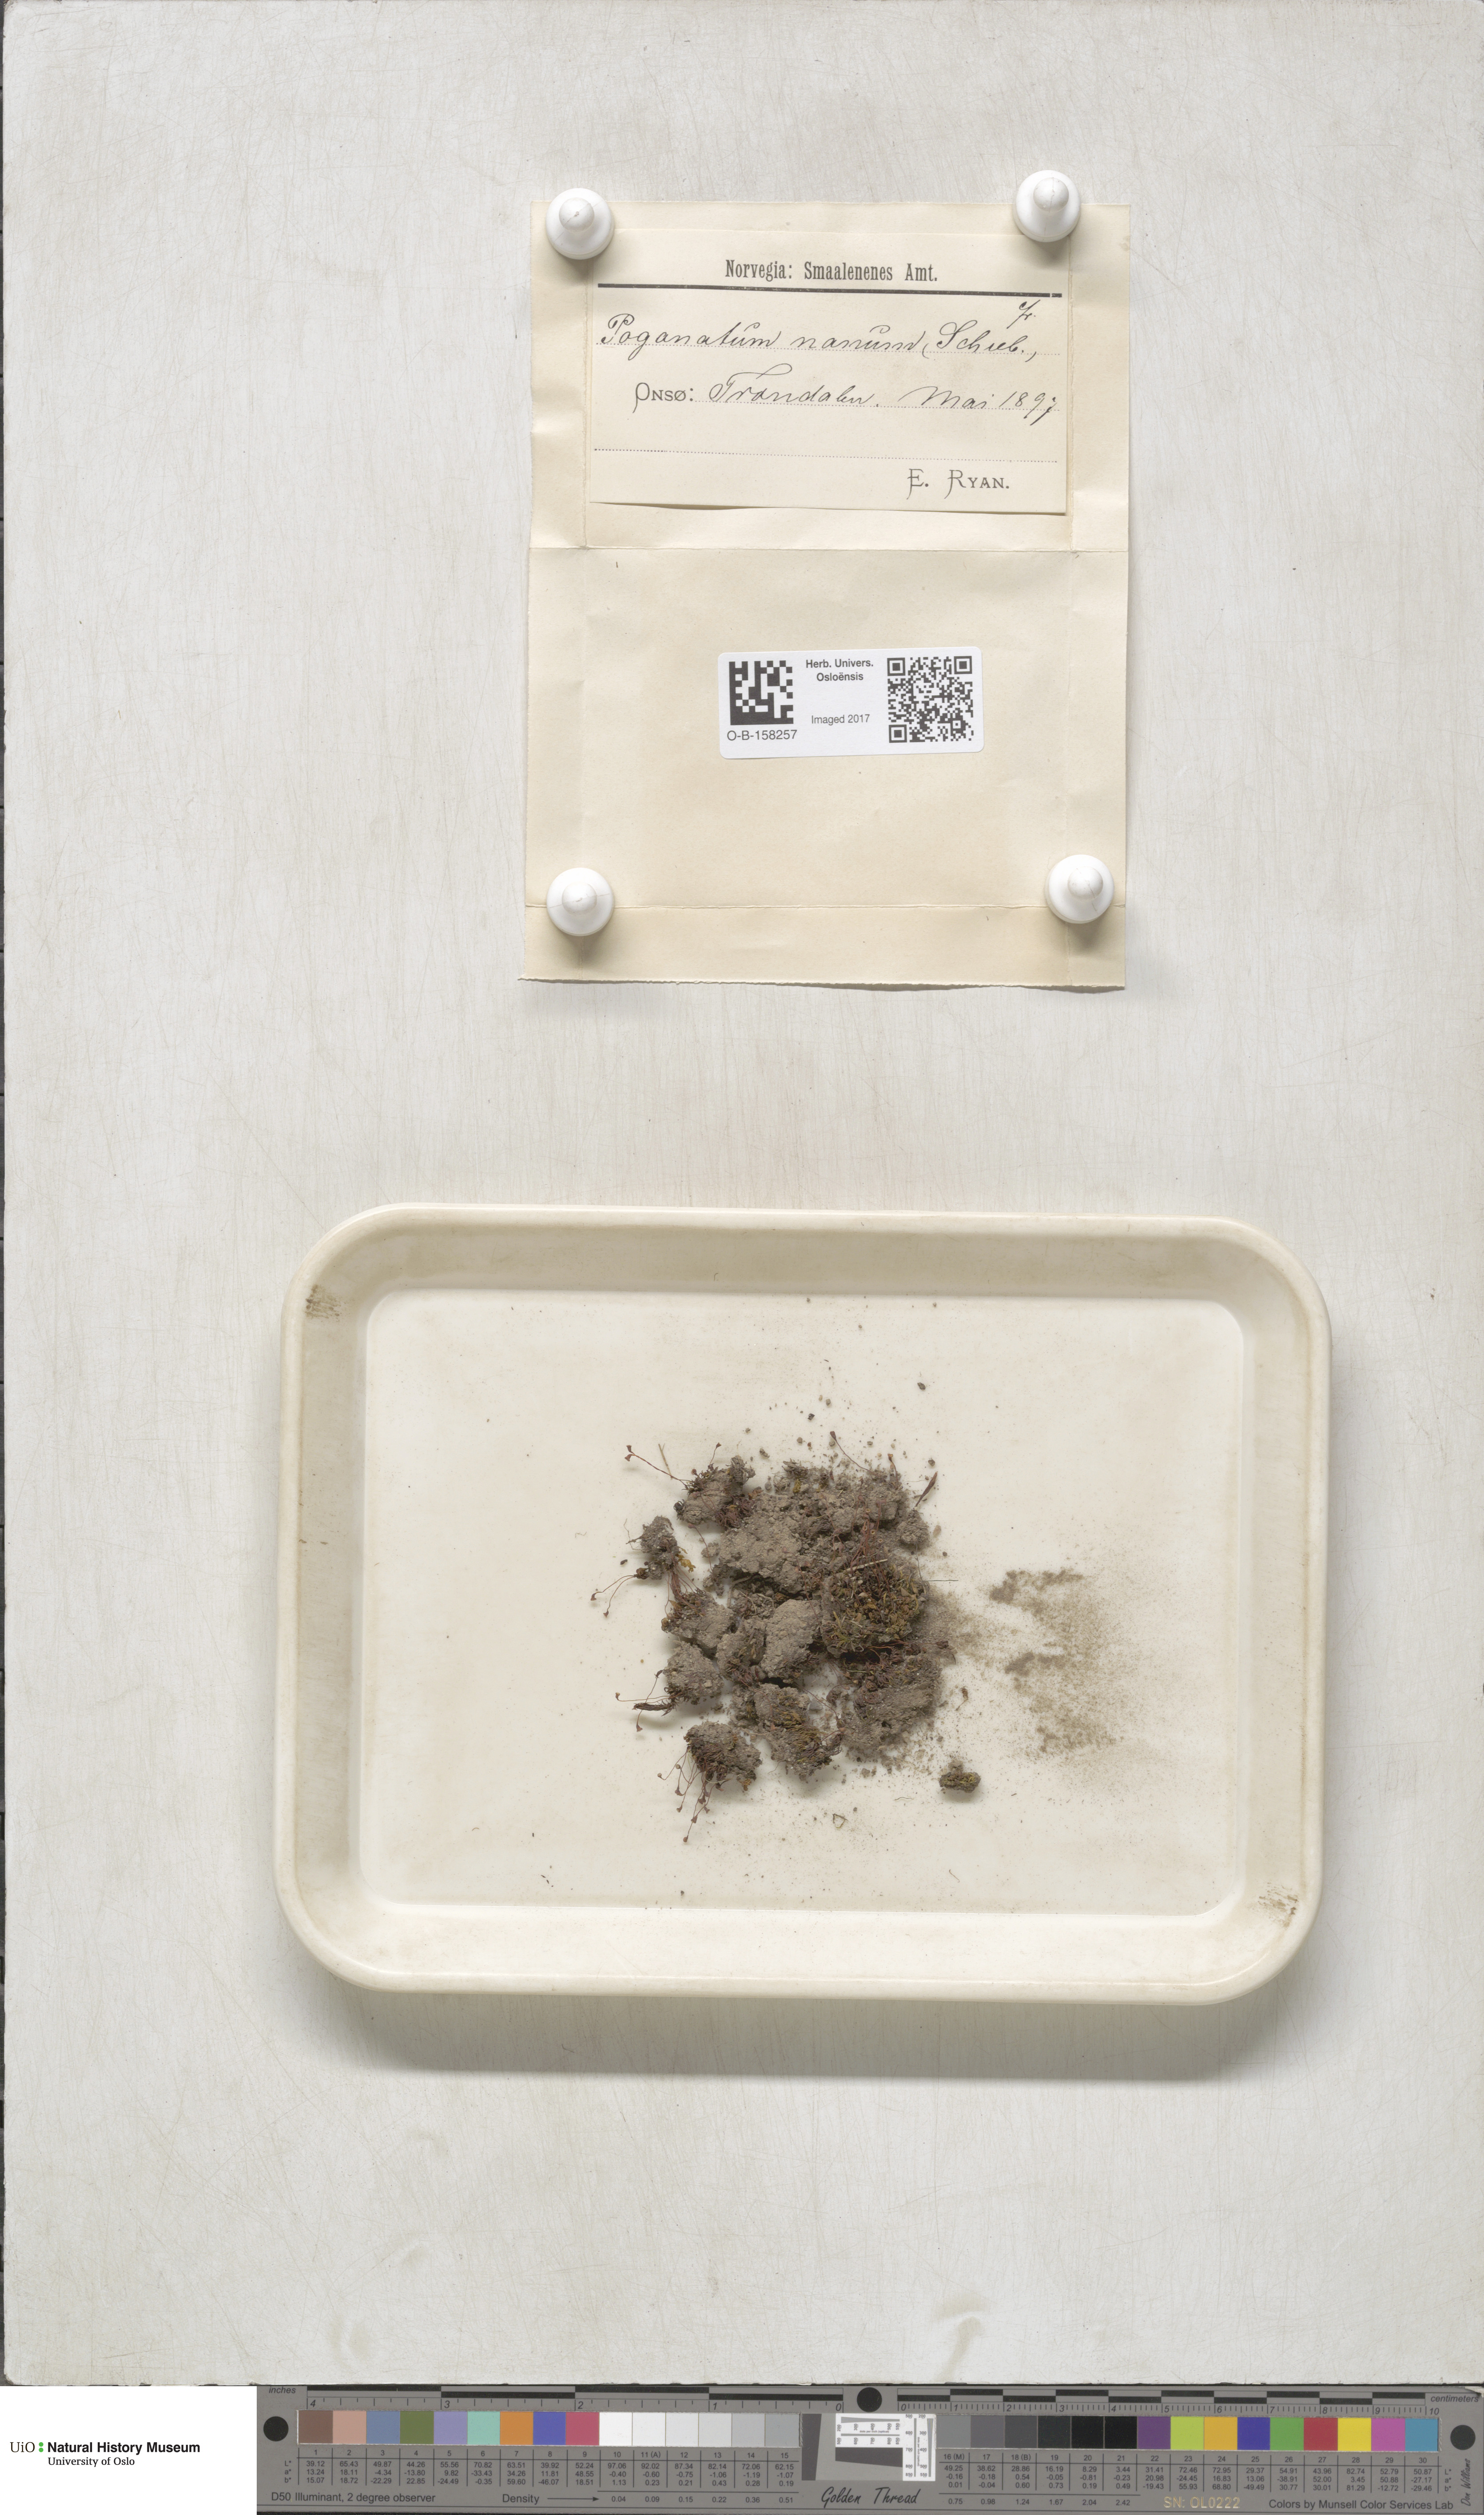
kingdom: Plantae
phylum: Bryophyta
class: Polytrichopsida
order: Polytrichales
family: Polytrichaceae
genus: Pogonatum
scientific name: Pogonatum nanum
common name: Dwarf haircap
